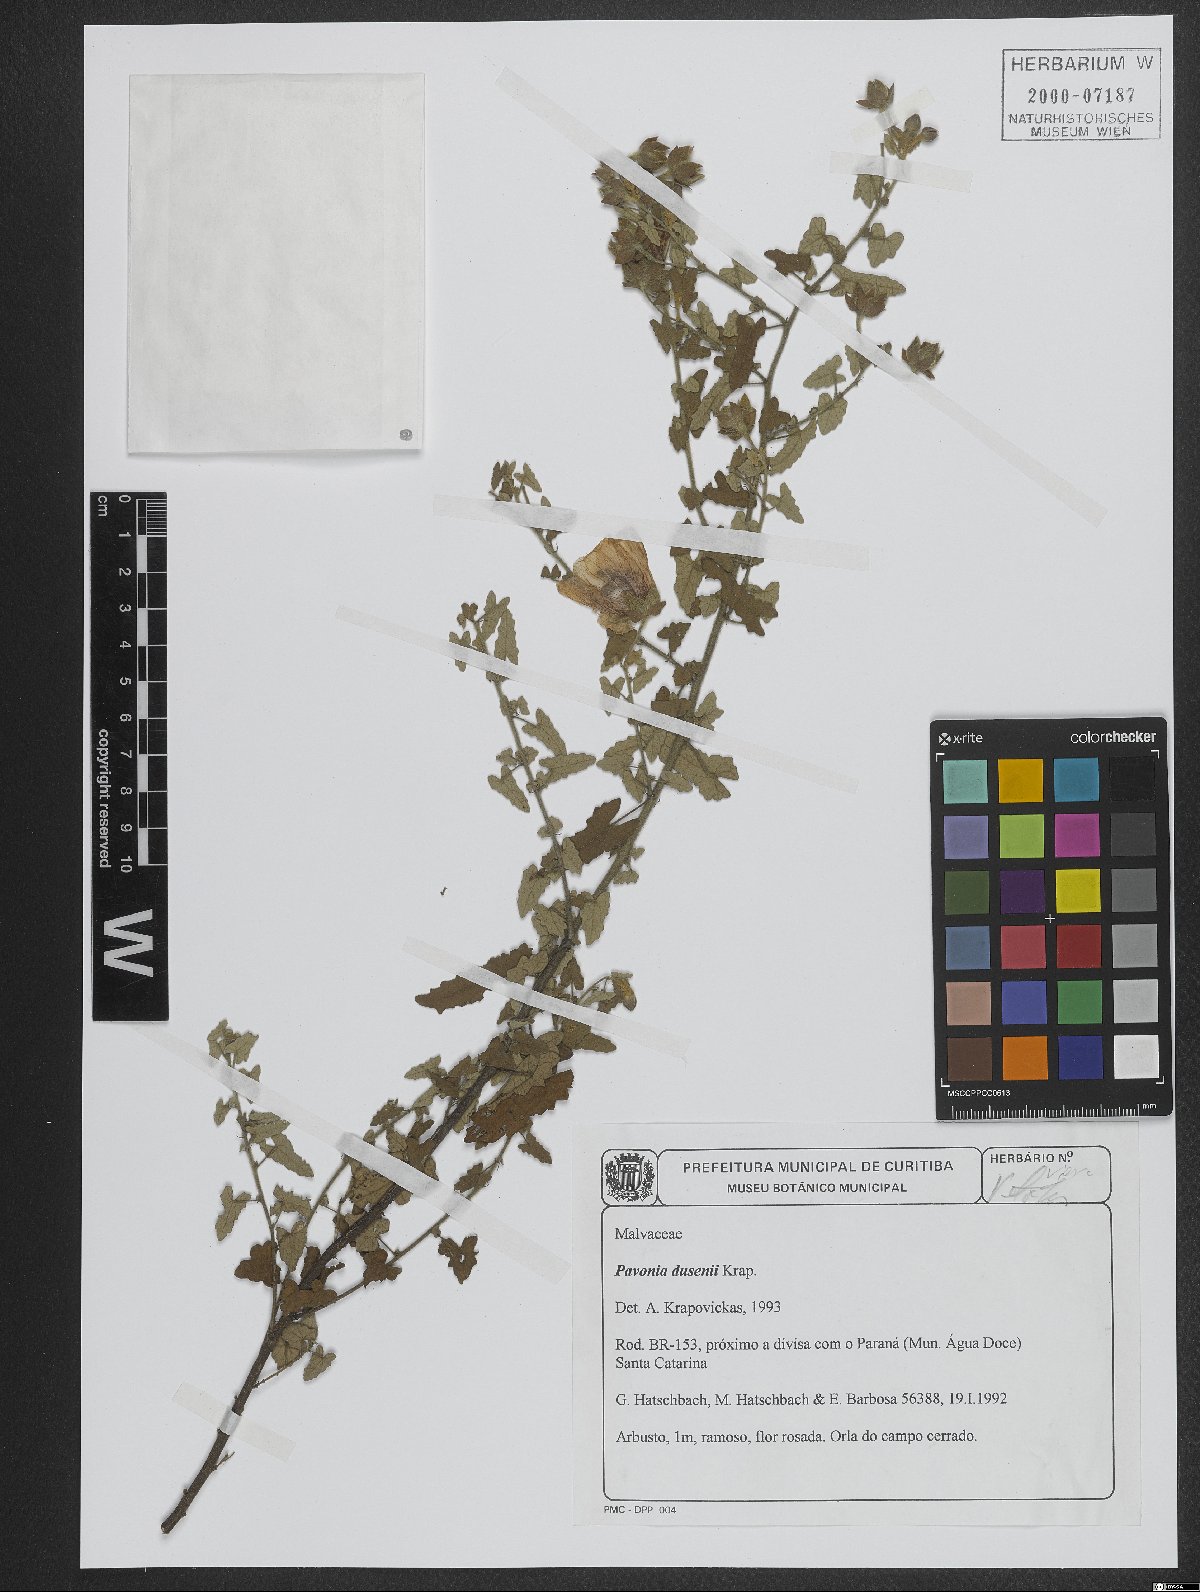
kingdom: Plantae
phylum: Tracheophyta
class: Magnoliopsida
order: Malvales
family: Malvaceae
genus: Pavonia
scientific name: Pavonia dusenii
